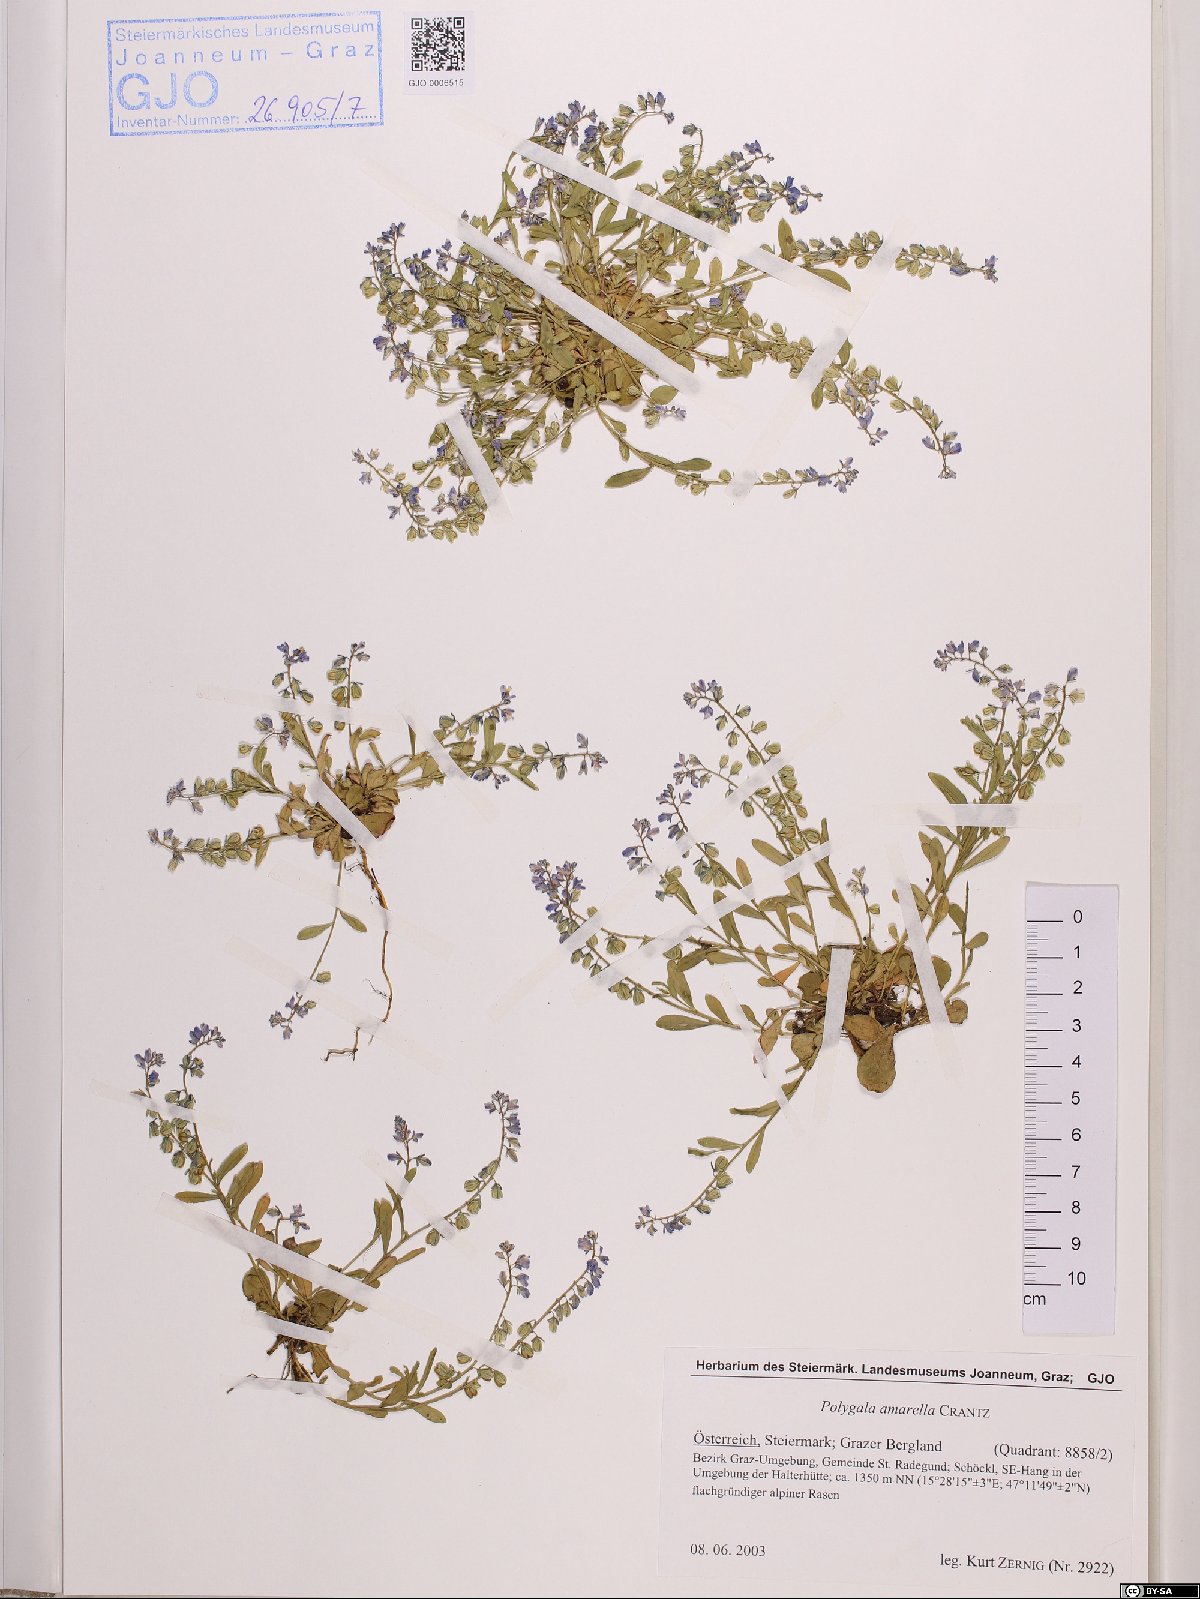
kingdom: Plantae
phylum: Tracheophyta
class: Magnoliopsida
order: Fabales
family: Polygalaceae
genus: Polygala
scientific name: Polygala amarella
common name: Dwarf milkwort
